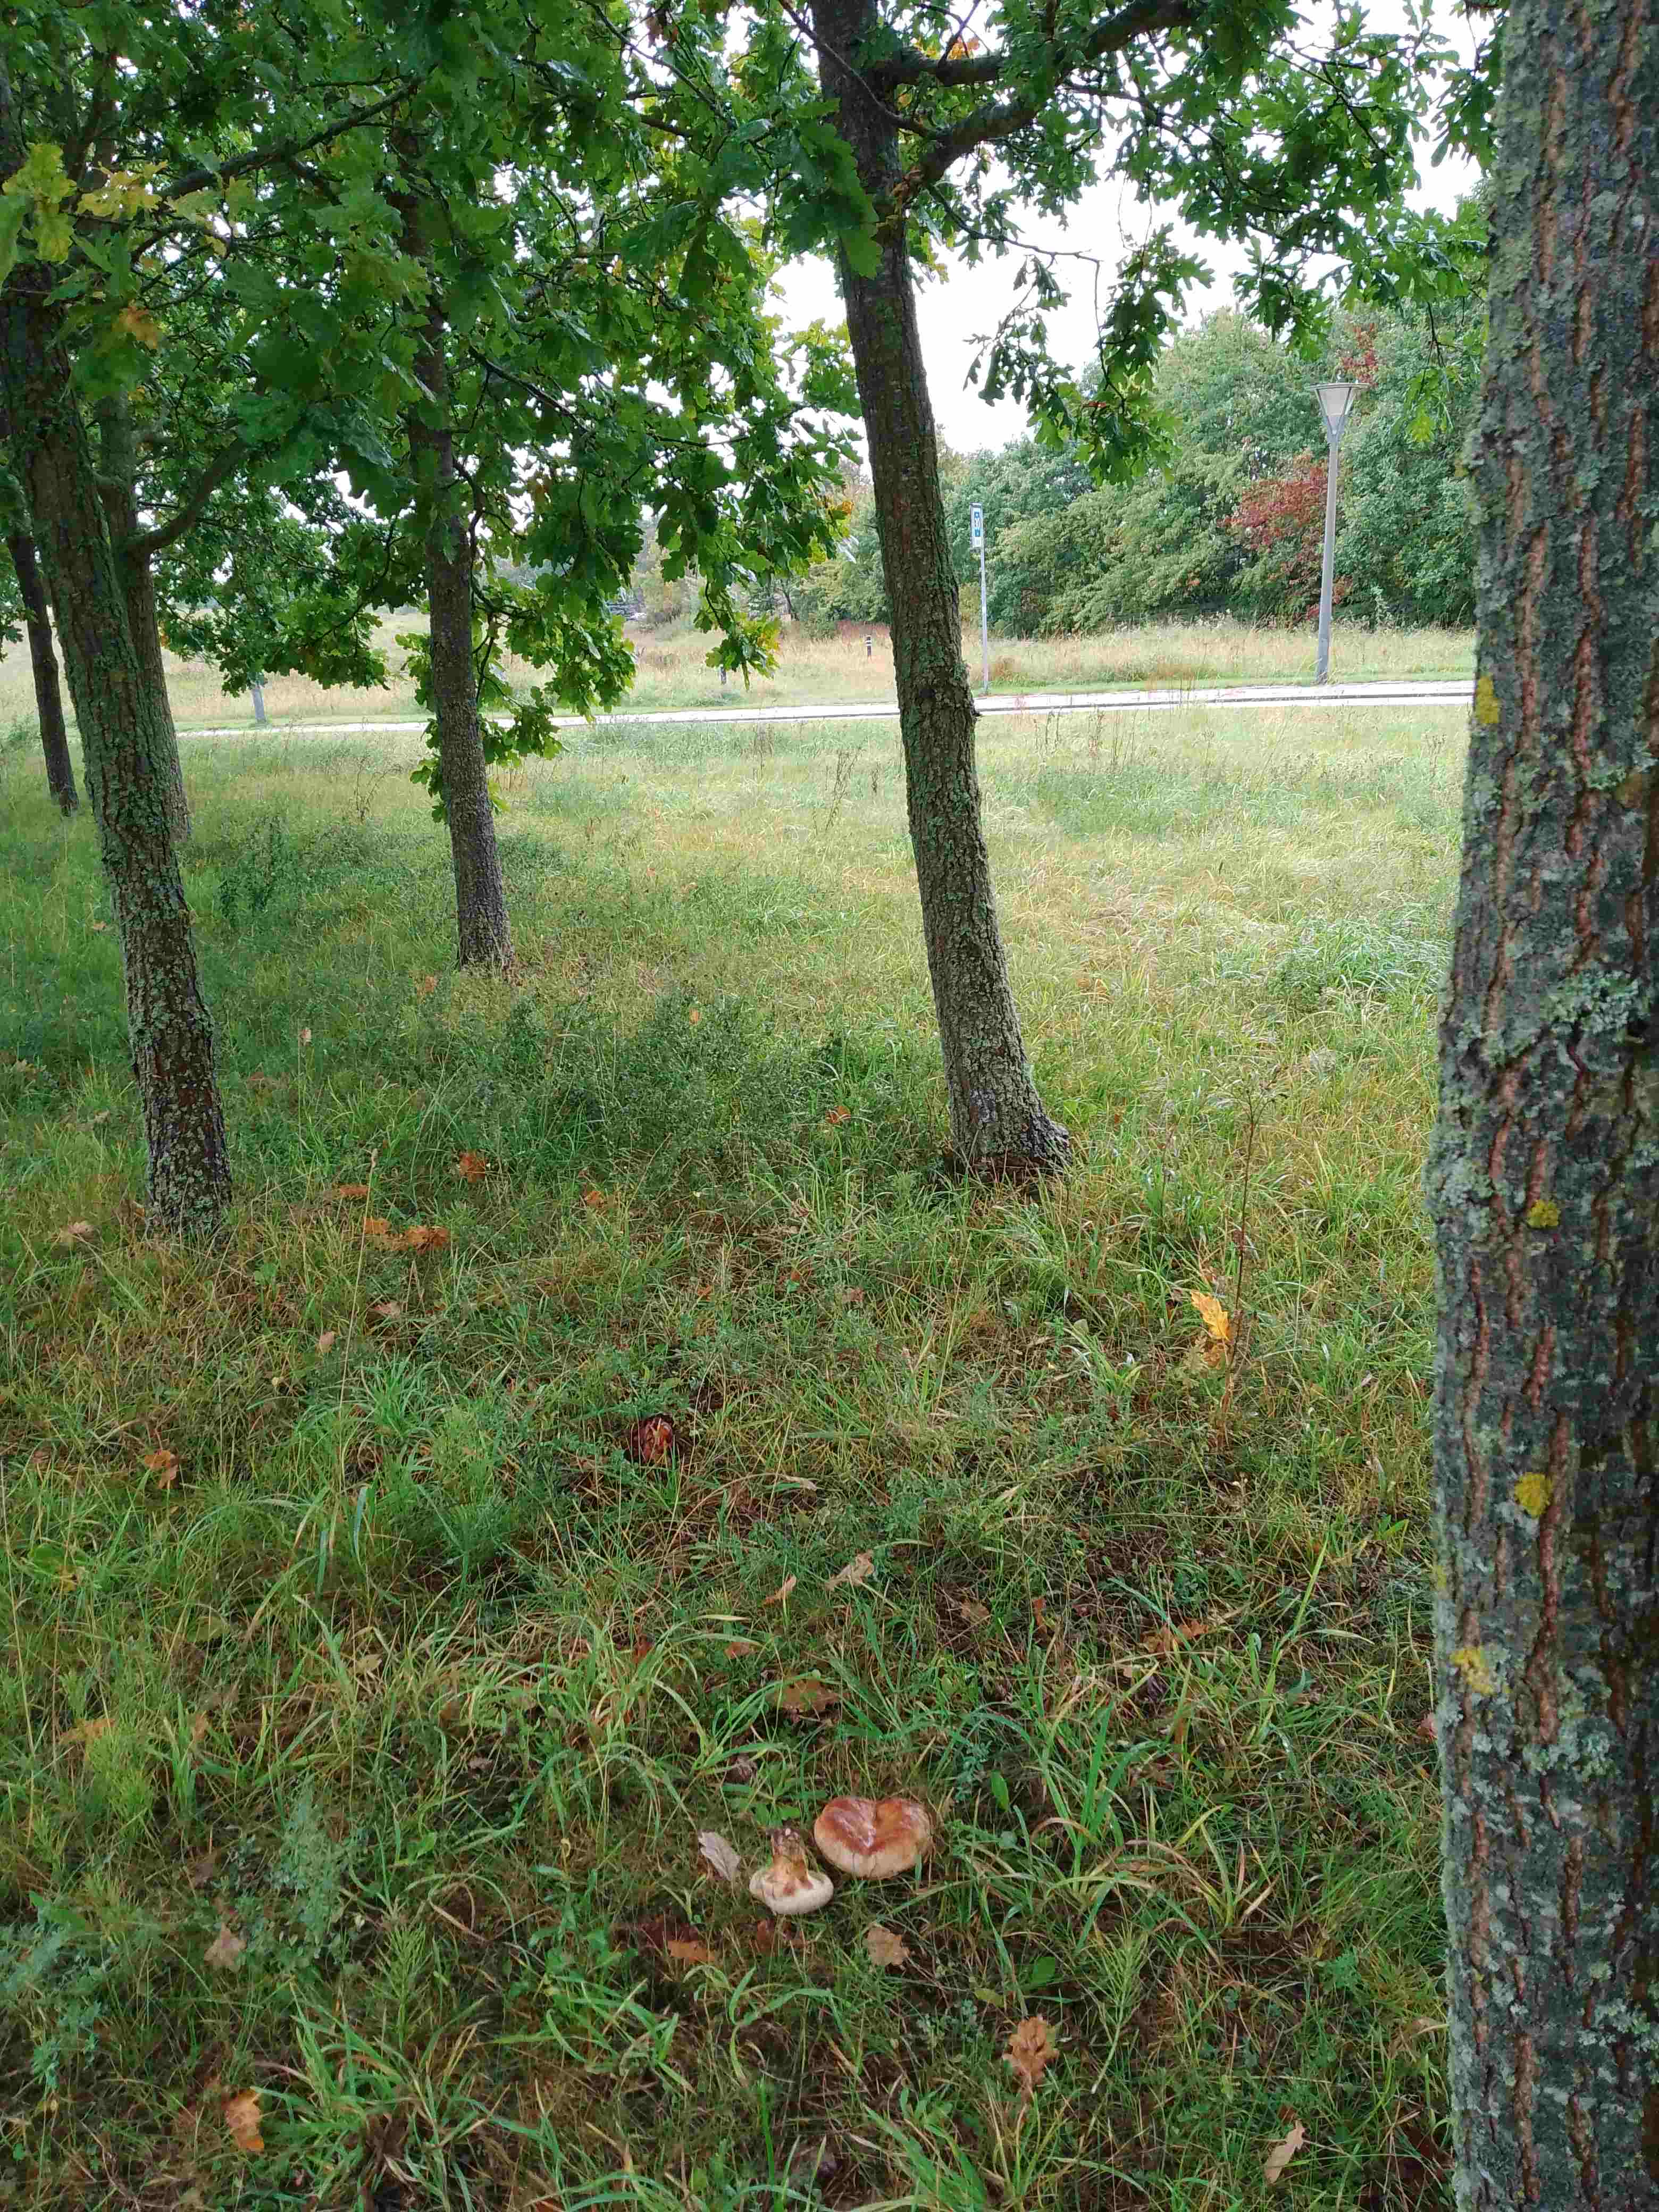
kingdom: Fungi
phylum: Basidiomycota
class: Agaricomycetes
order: Boletales
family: Paxillaceae
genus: Paxillus
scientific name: Paxillus
